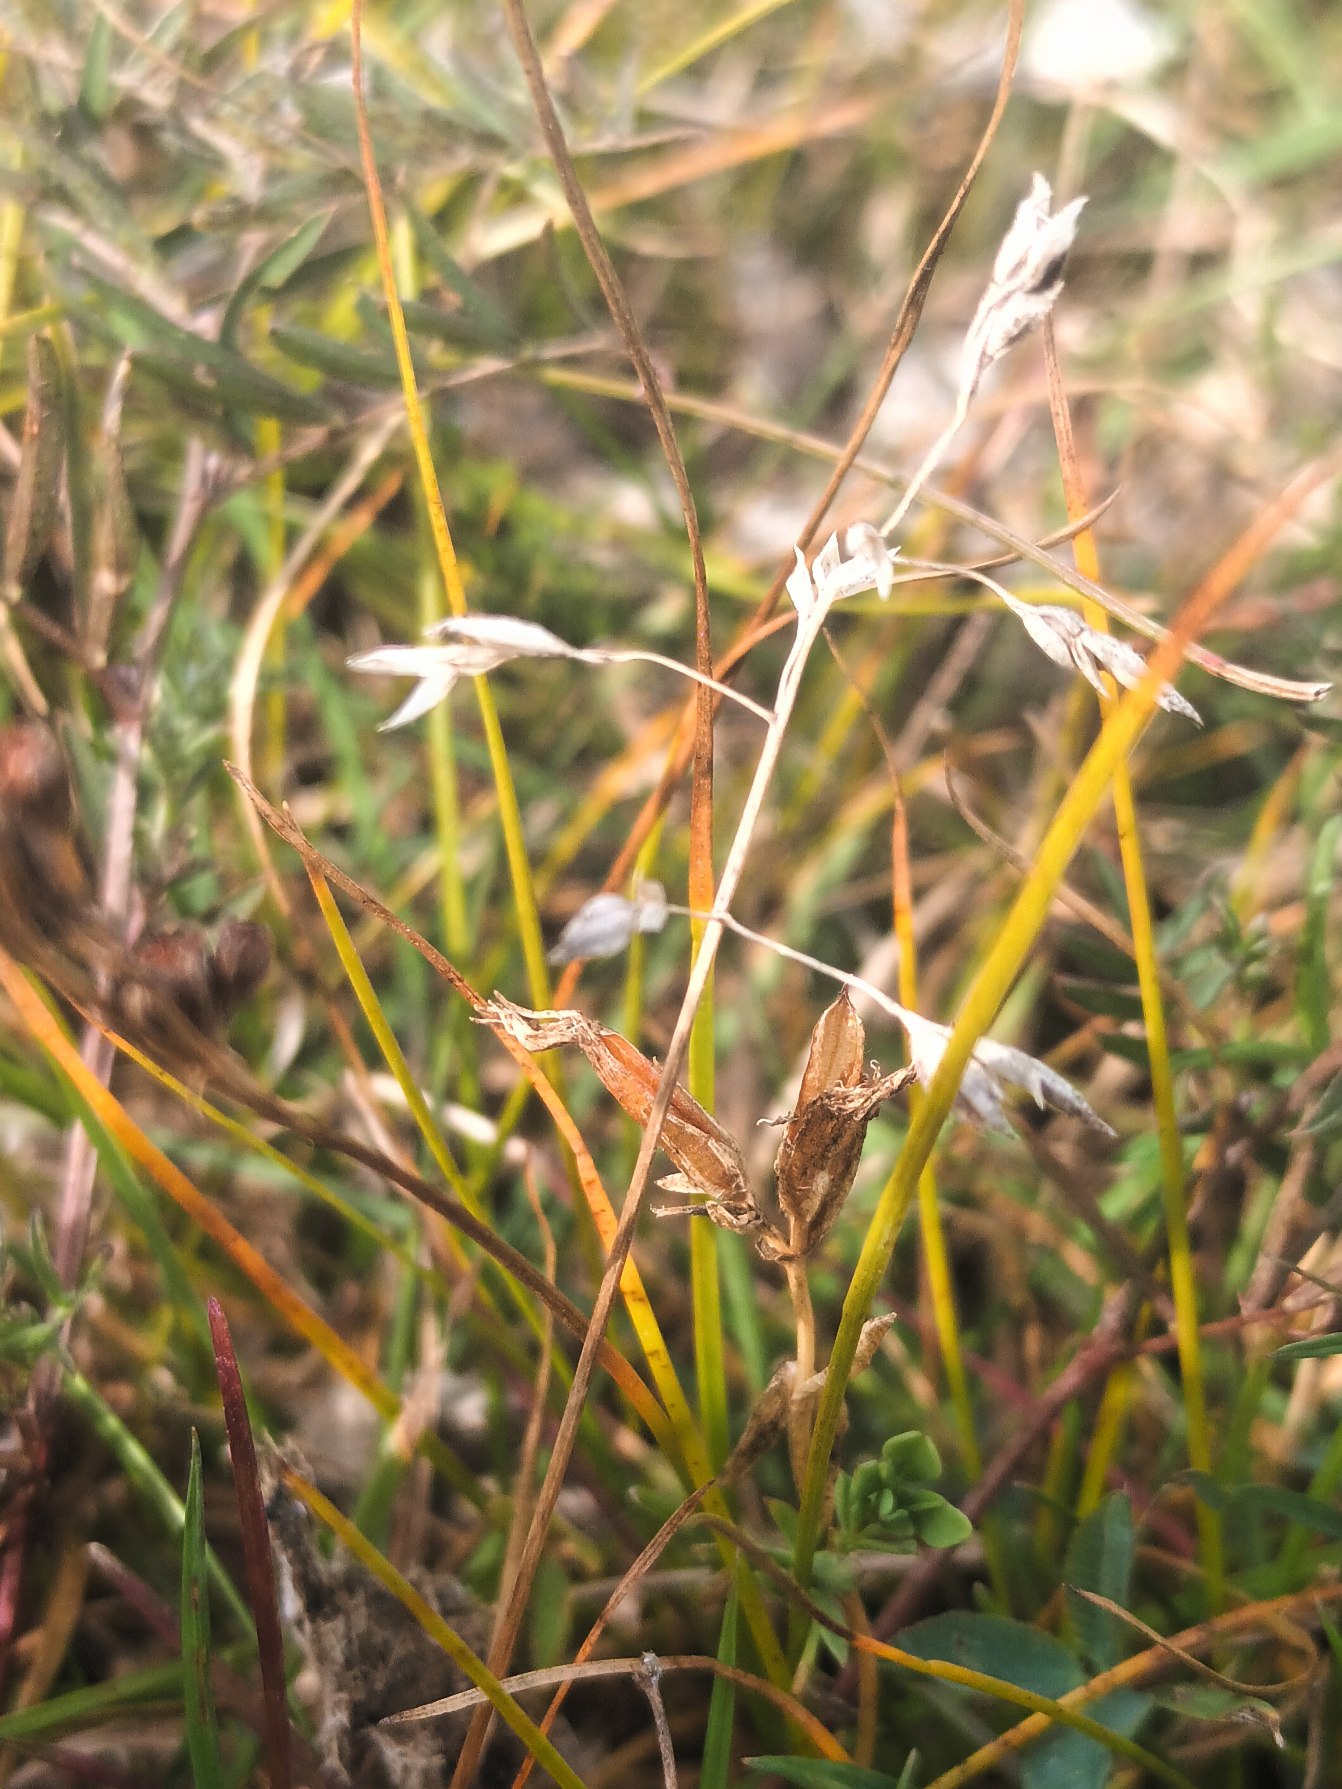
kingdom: Plantae
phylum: Tracheophyta
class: Liliopsida
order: Poales
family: Poaceae
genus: Poa
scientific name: Poa humilis
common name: Sølv-rapgræs
